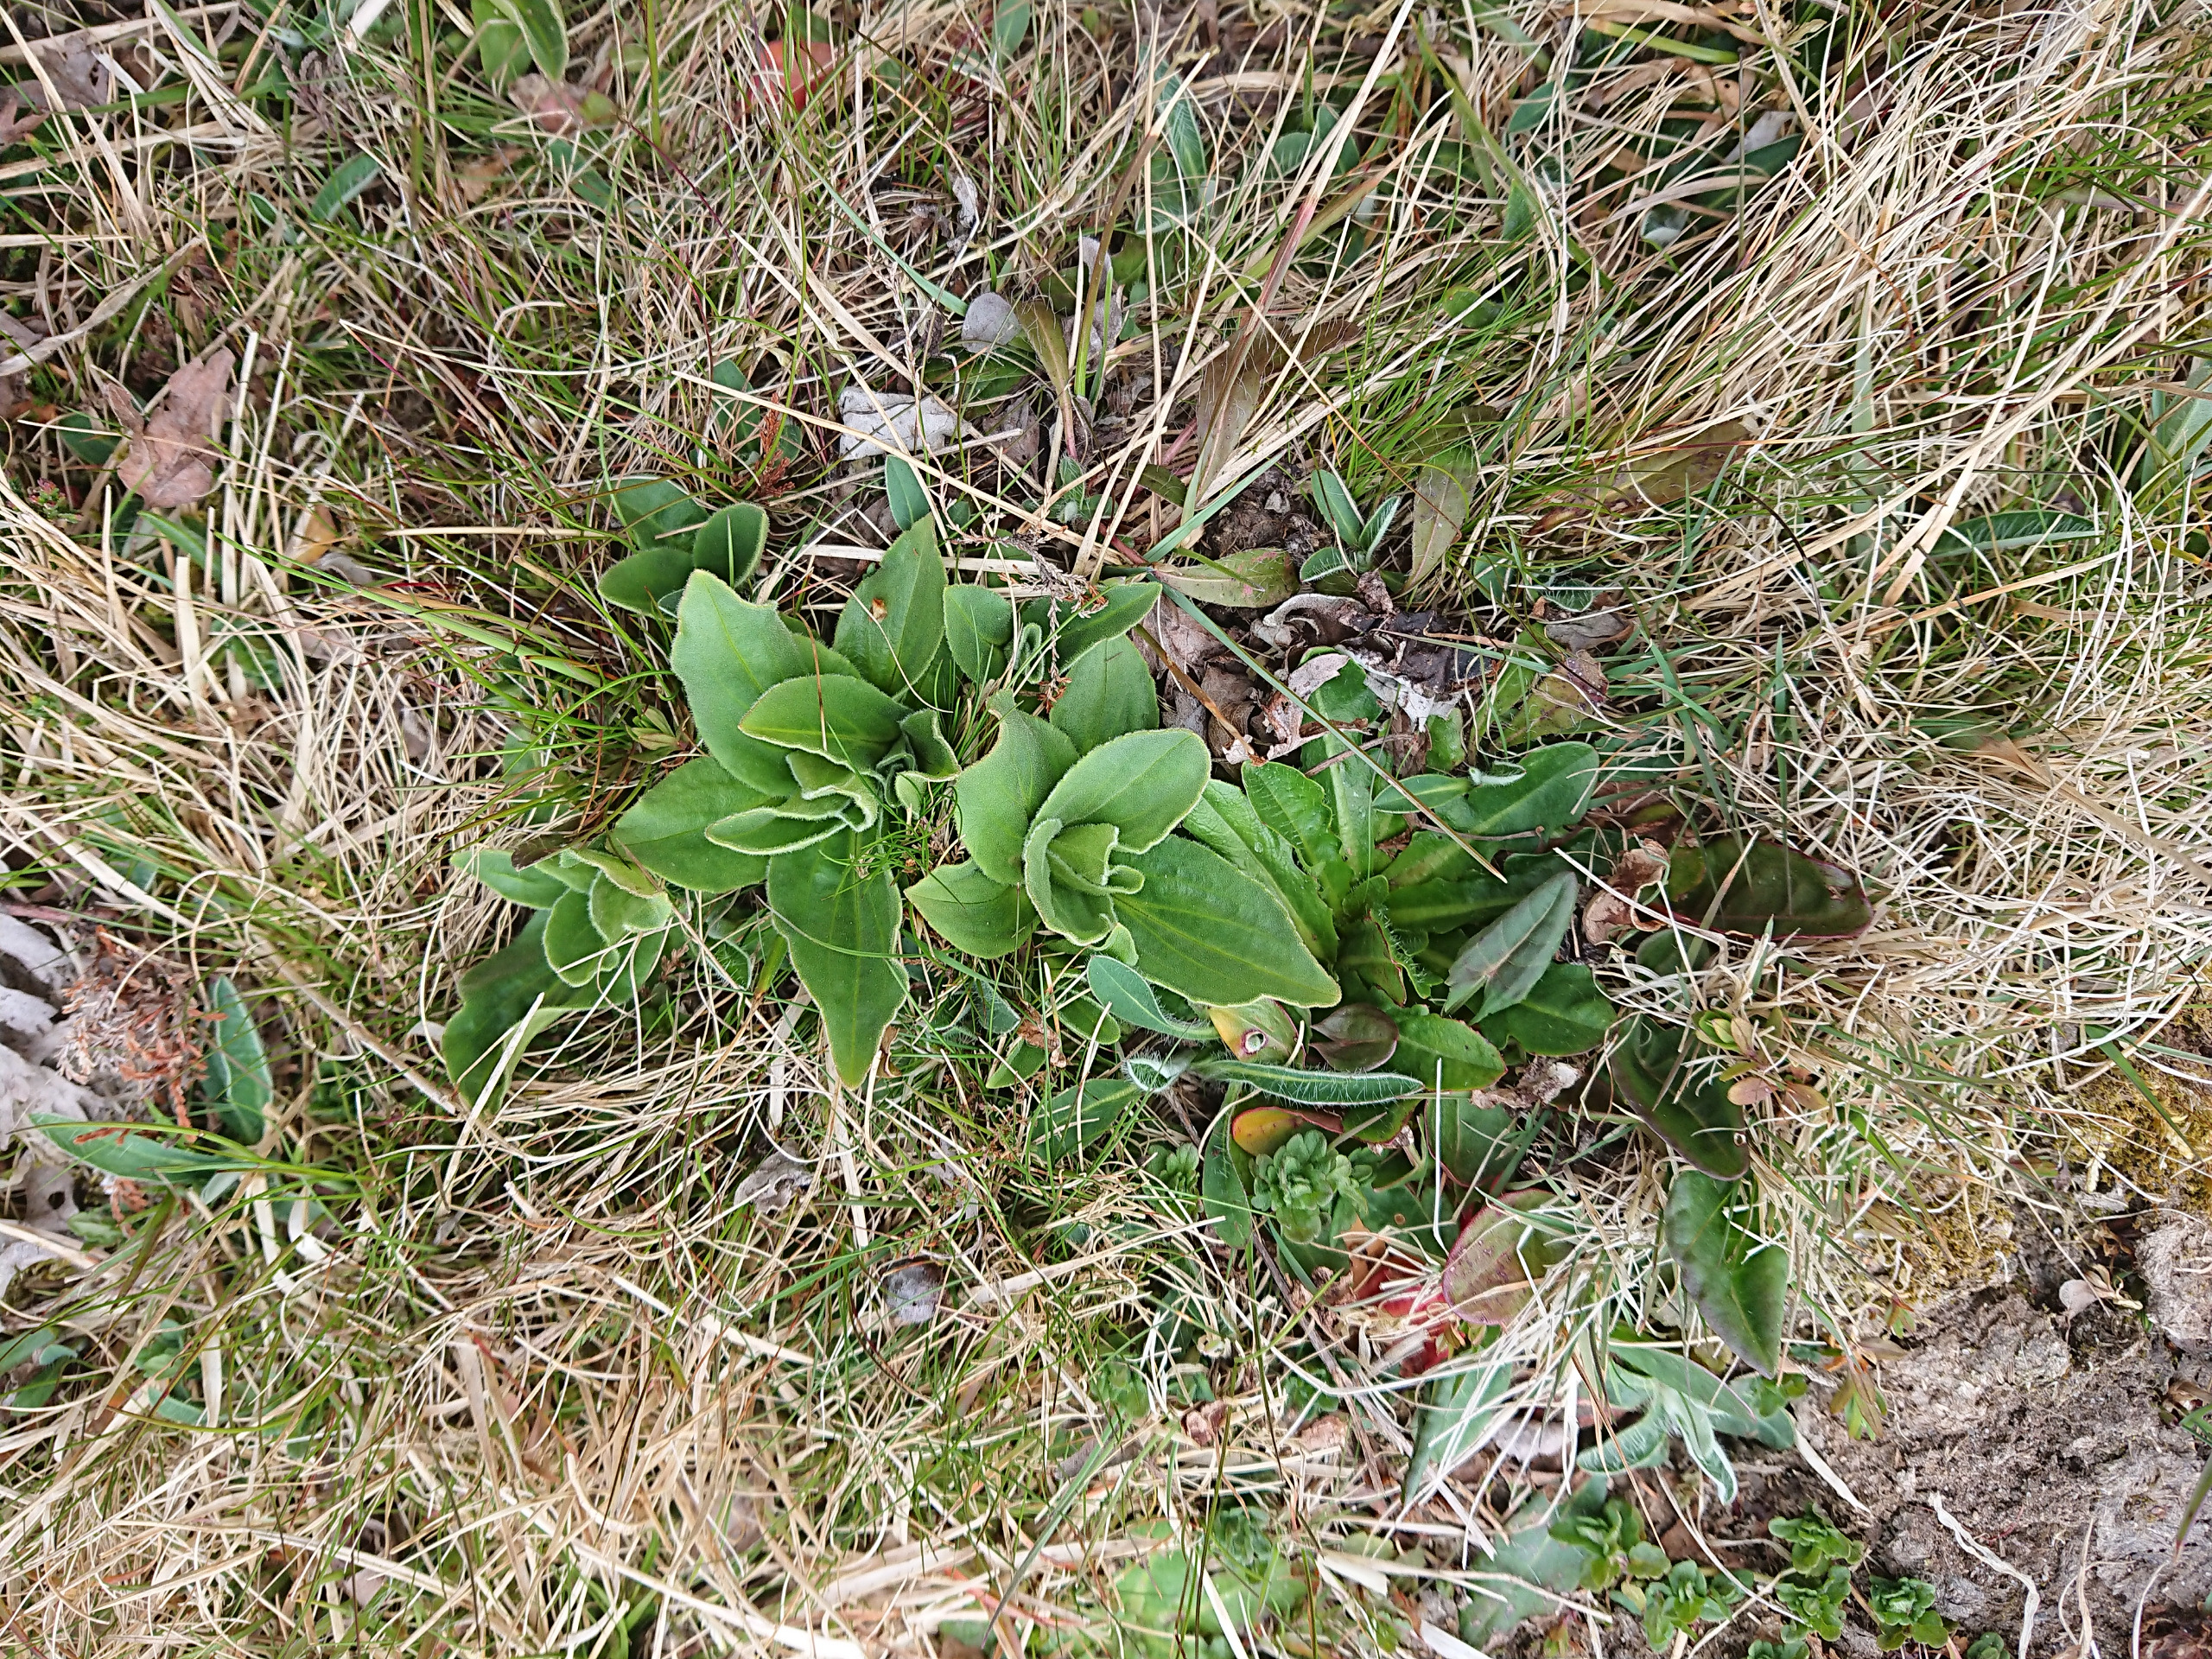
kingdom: Plantae
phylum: Tracheophyta
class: Magnoliopsida
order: Asterales
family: Asteraceae
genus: Arnica
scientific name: Arnica montana
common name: Guldblomme
